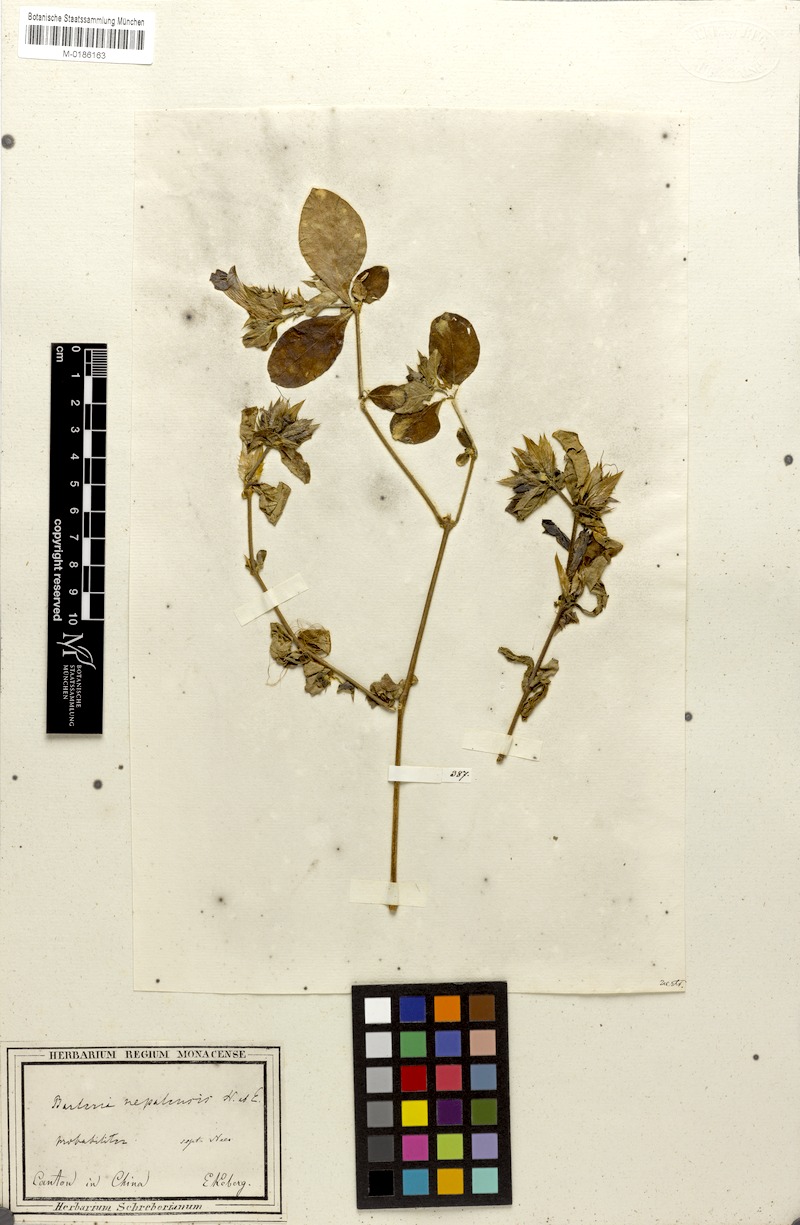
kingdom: Plantae
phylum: Tracheophyta
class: Magnoliopsida
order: Lamiales
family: Acanthaceae
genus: Barleria
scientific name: Barleria cristata
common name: Crested philippine violet
